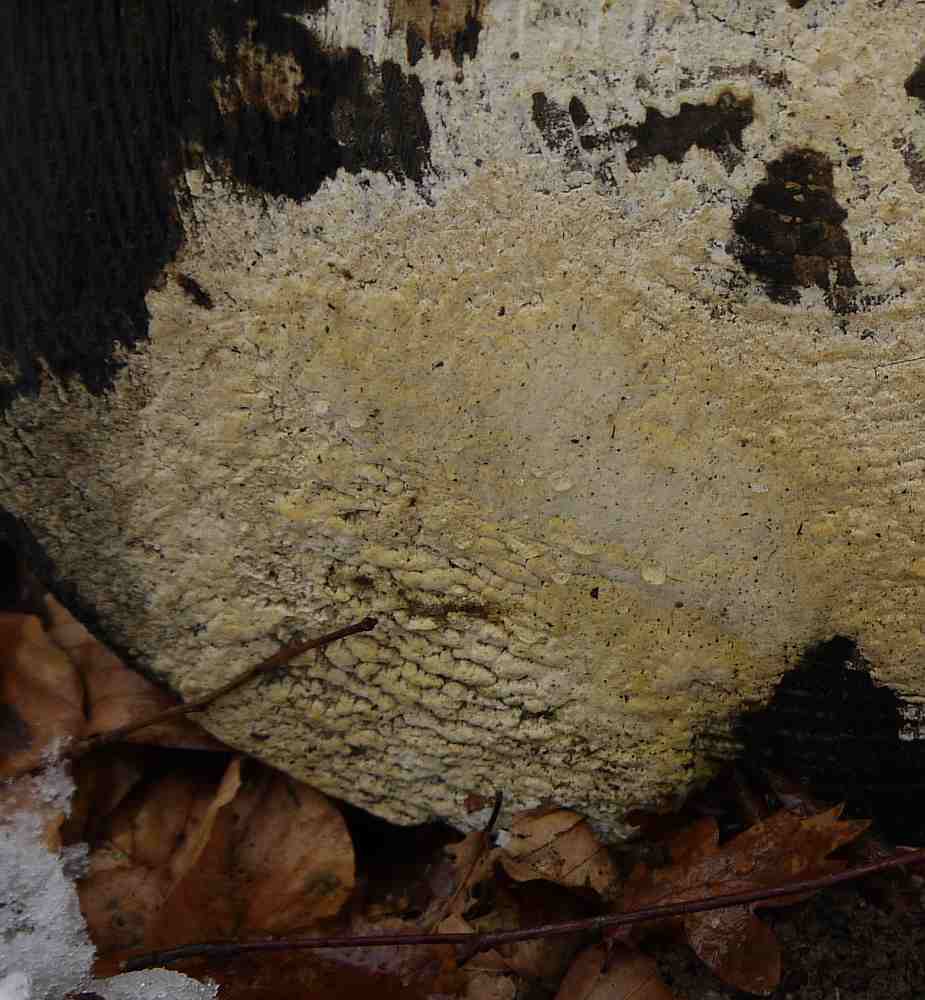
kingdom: Fungi
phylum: Basidiomycota
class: Agaricomycetes
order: Polyporales
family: Fomitopsidaceae
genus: Daedalea
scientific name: Daedalea xantha
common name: gul sejporesvamp
